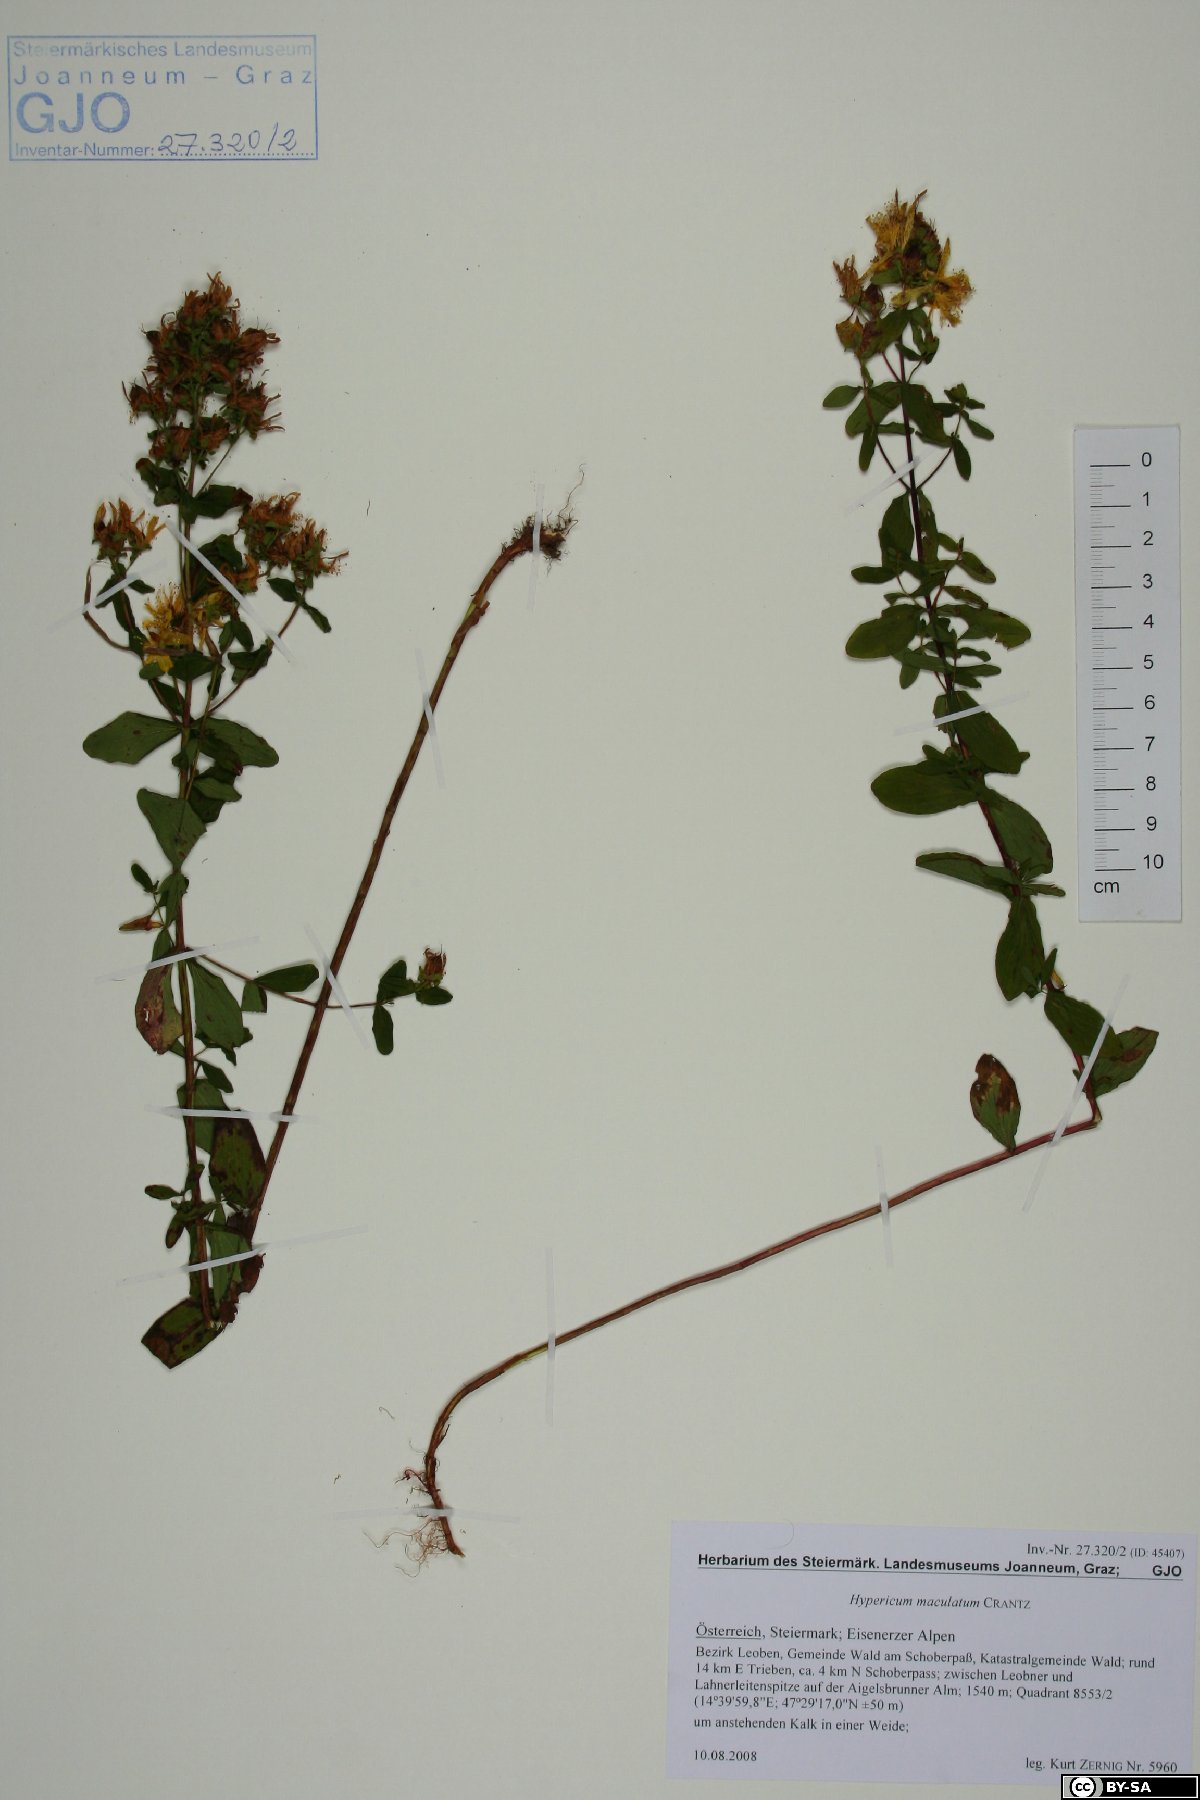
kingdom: Plantae
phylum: Tracheophyta
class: Magnoliopsida
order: Malpighiales
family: Hypericaceae
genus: Hypericum
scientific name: Hypericum maculatum
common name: Imperforate st. john's-wort
